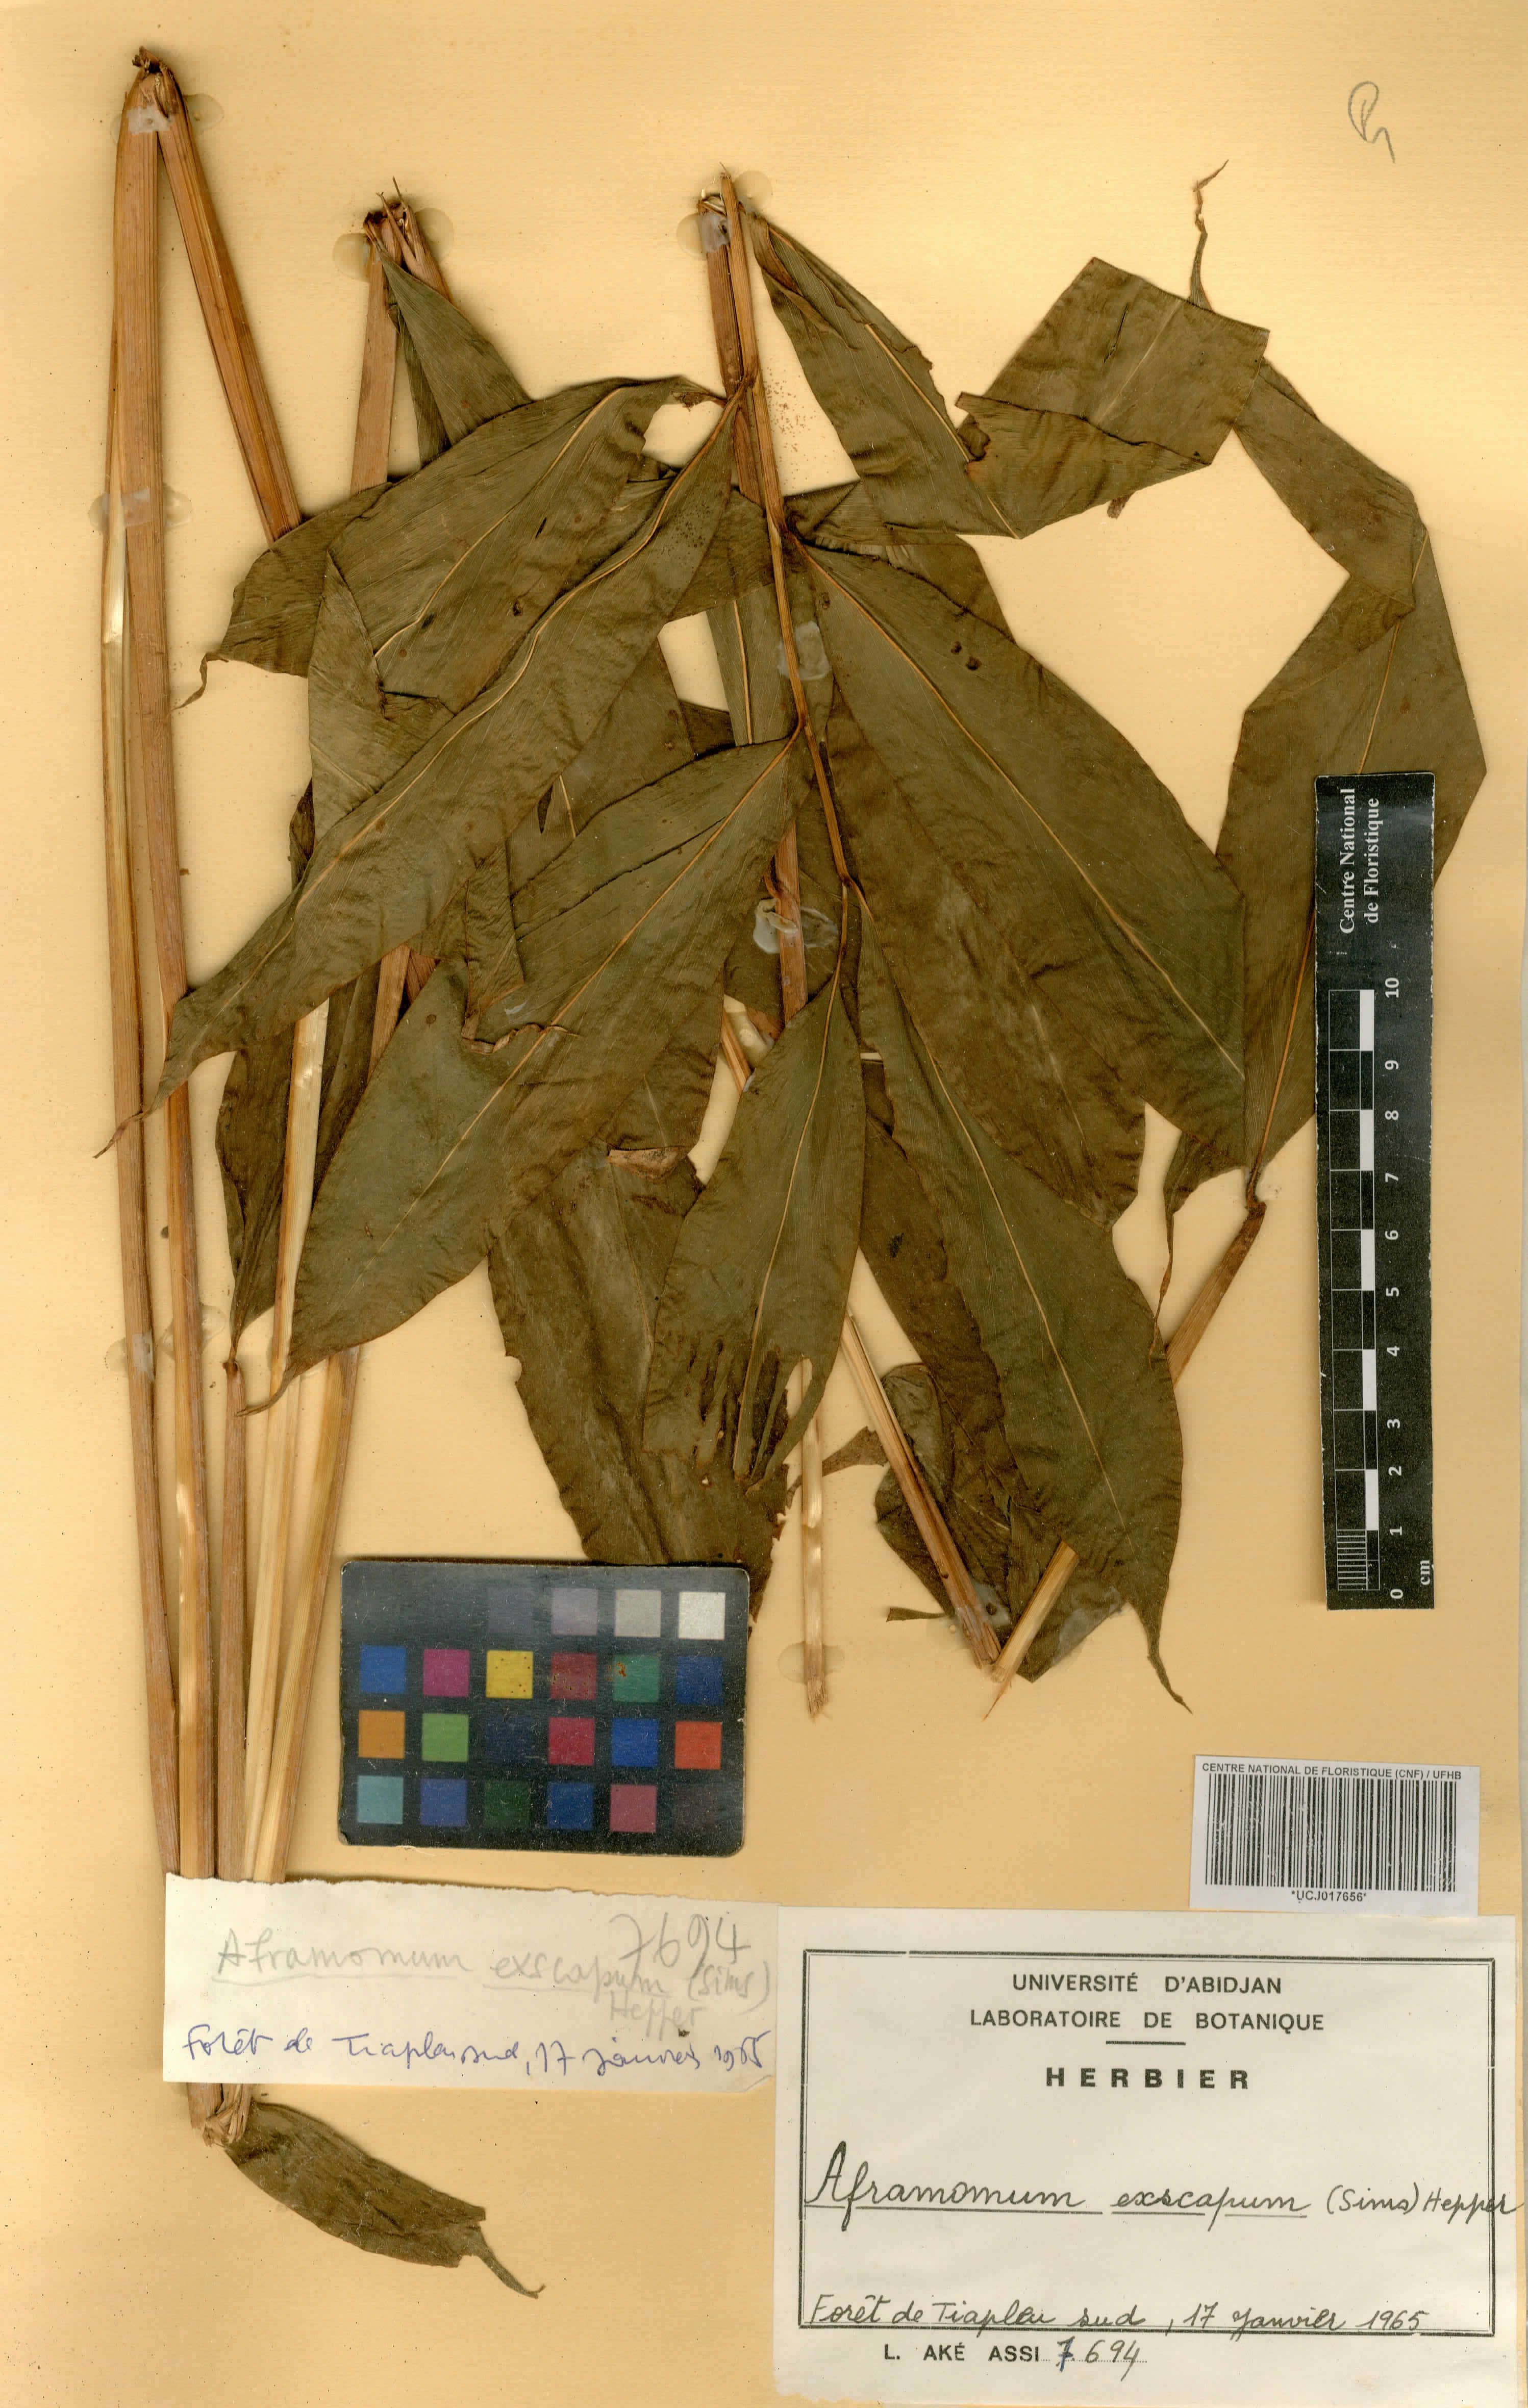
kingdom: Plantae
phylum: Tracheophyta
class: Liliopsida
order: Zingiberales
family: Zingiberaceae
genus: Aframomum
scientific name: Aframomum exscapum
